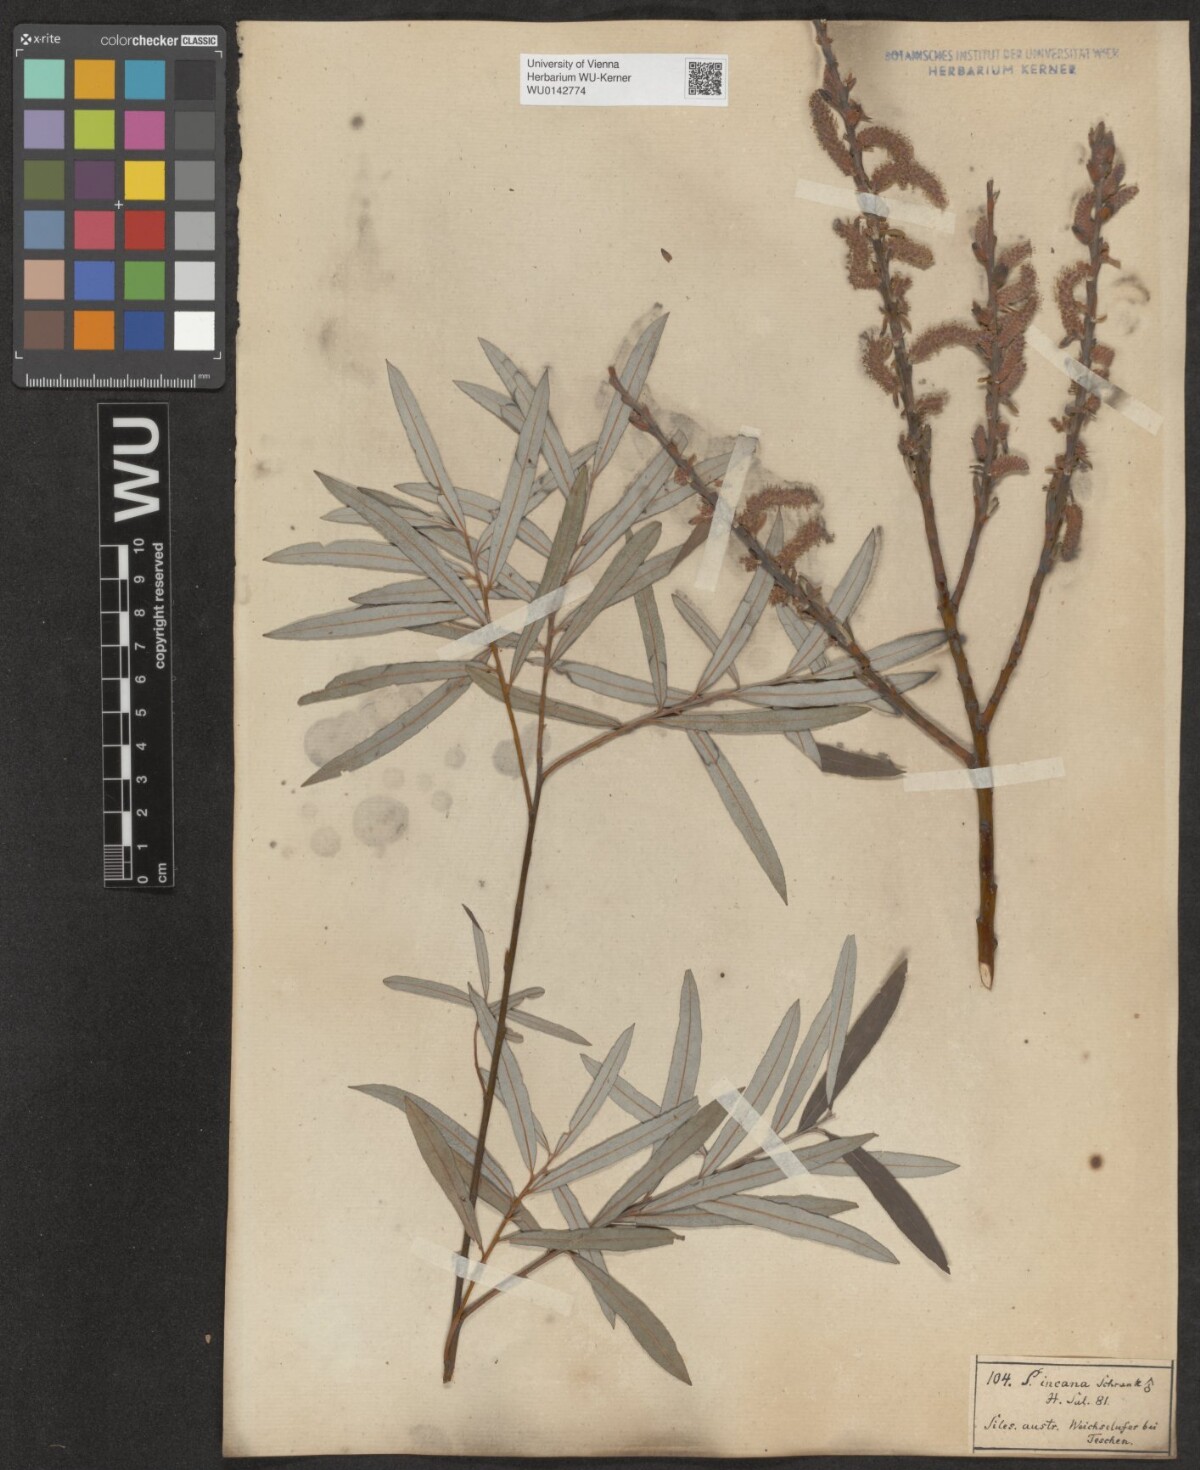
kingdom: Plantae
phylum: Tracheophyta
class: Magnoliopsida
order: Malpighiales
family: Salicaceae
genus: Salix
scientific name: Salix eleagnos
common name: Elaeagnus willow
